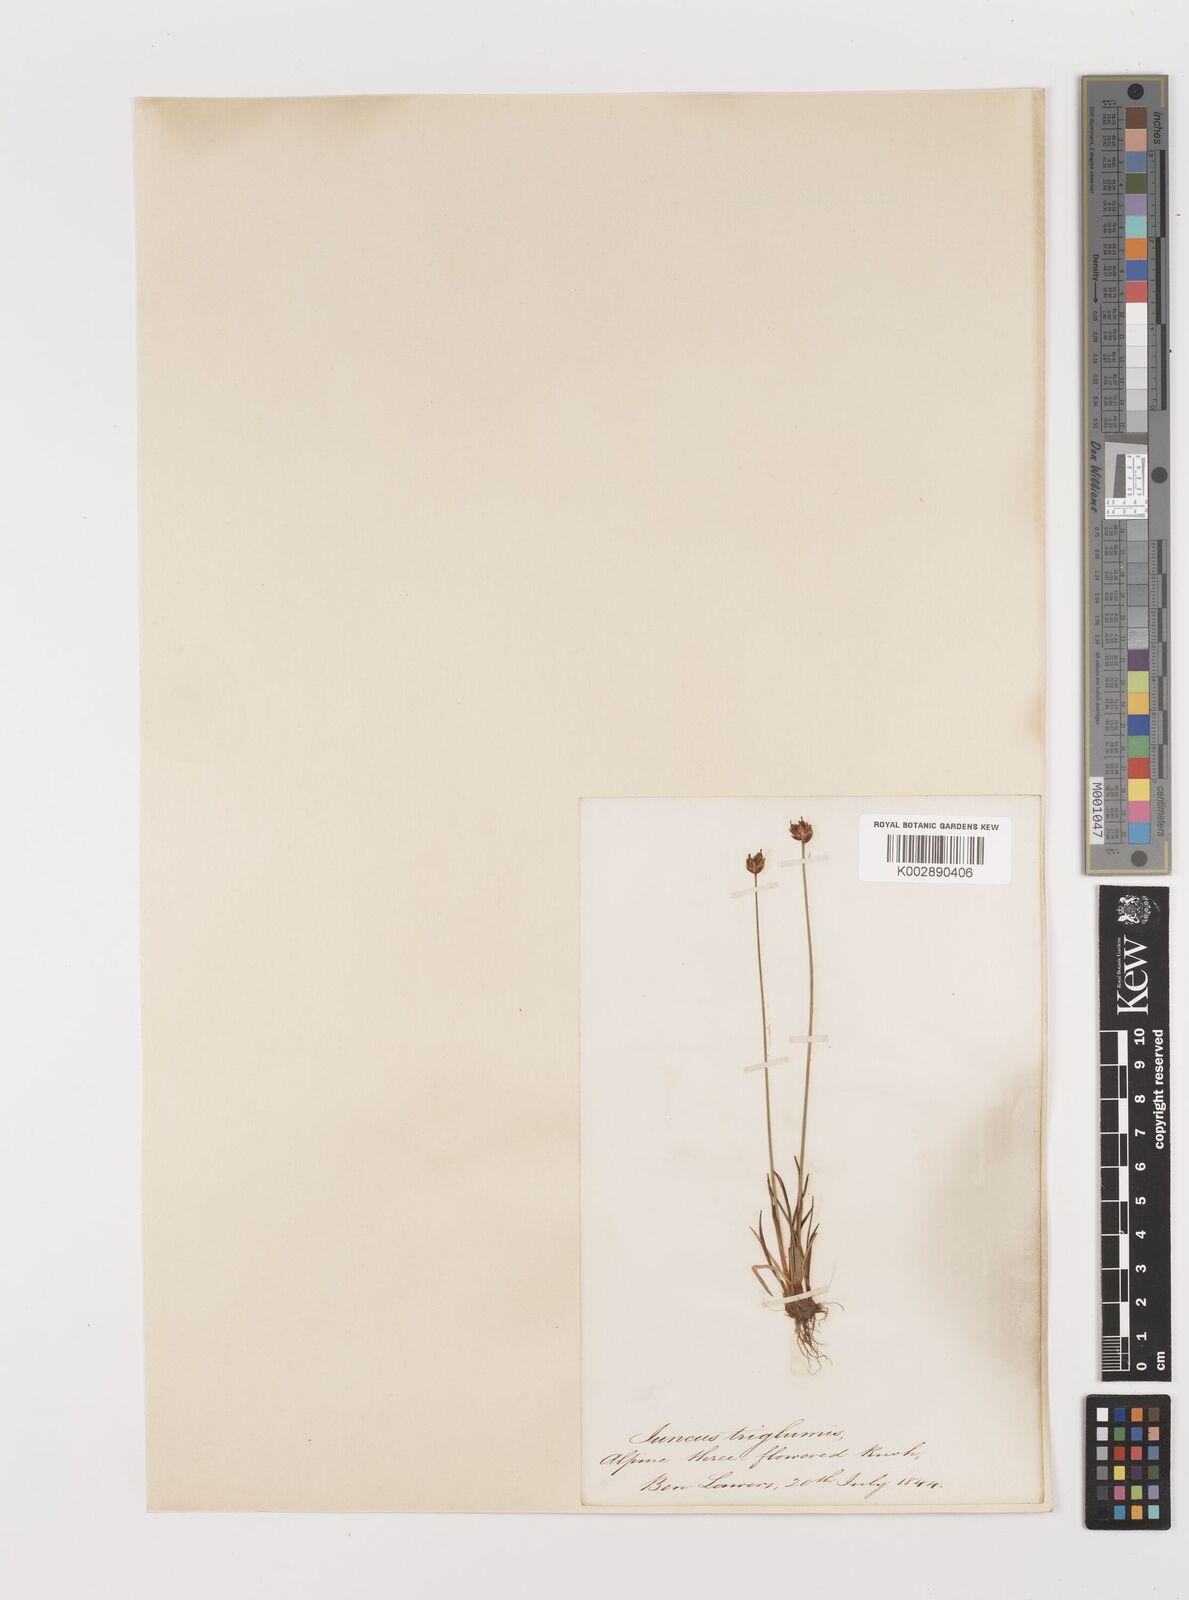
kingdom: Plantae
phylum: Tracheophyta
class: Liliopsida
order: Poales
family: Juncaceae
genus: Juncus
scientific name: Juncus triglumis
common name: Three-flowered rush
